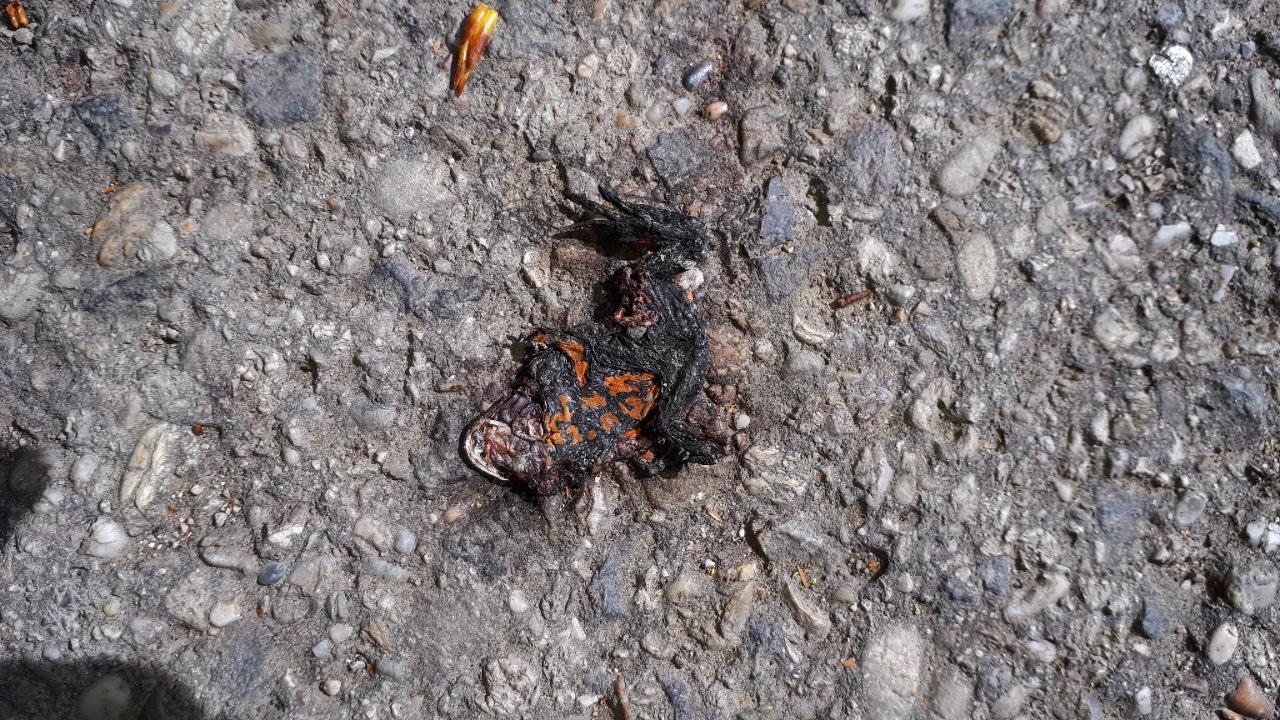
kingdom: Animalia
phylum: Chordata
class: Amphibia
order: Anura
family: Bombinatoridae
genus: Bombina
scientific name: Bombina bombina
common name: Fire-bellied toad
